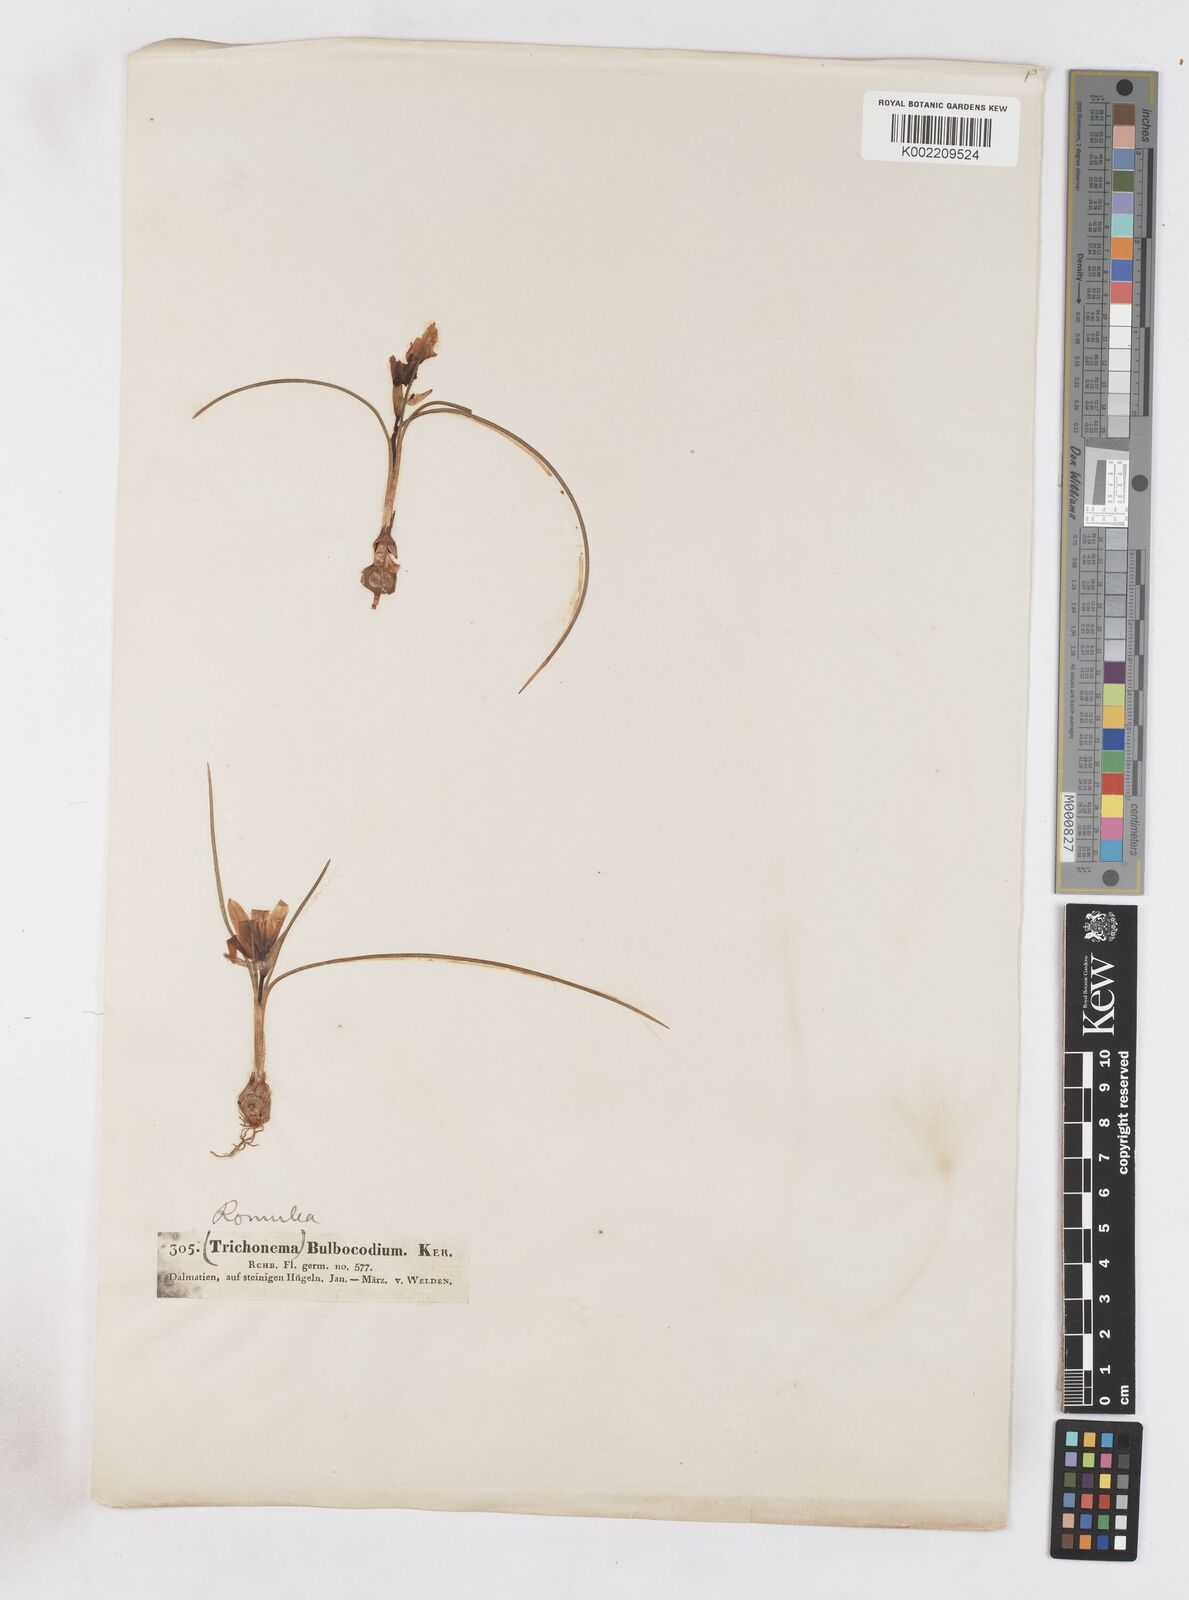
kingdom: Plantae
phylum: Tracheophyta
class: Liliopsida
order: Asparagales
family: Iridaceae
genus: Romulea
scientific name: Romulea bulbocodium
